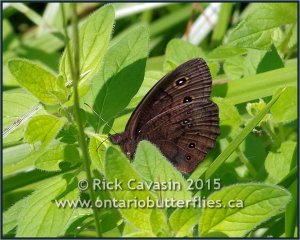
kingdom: Animalia
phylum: Arthropoda
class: Insecta
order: Lepidoptera
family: Nymphalidae
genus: Cercyonis
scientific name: Cercyonis pegala
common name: Common Wood-Nymph
